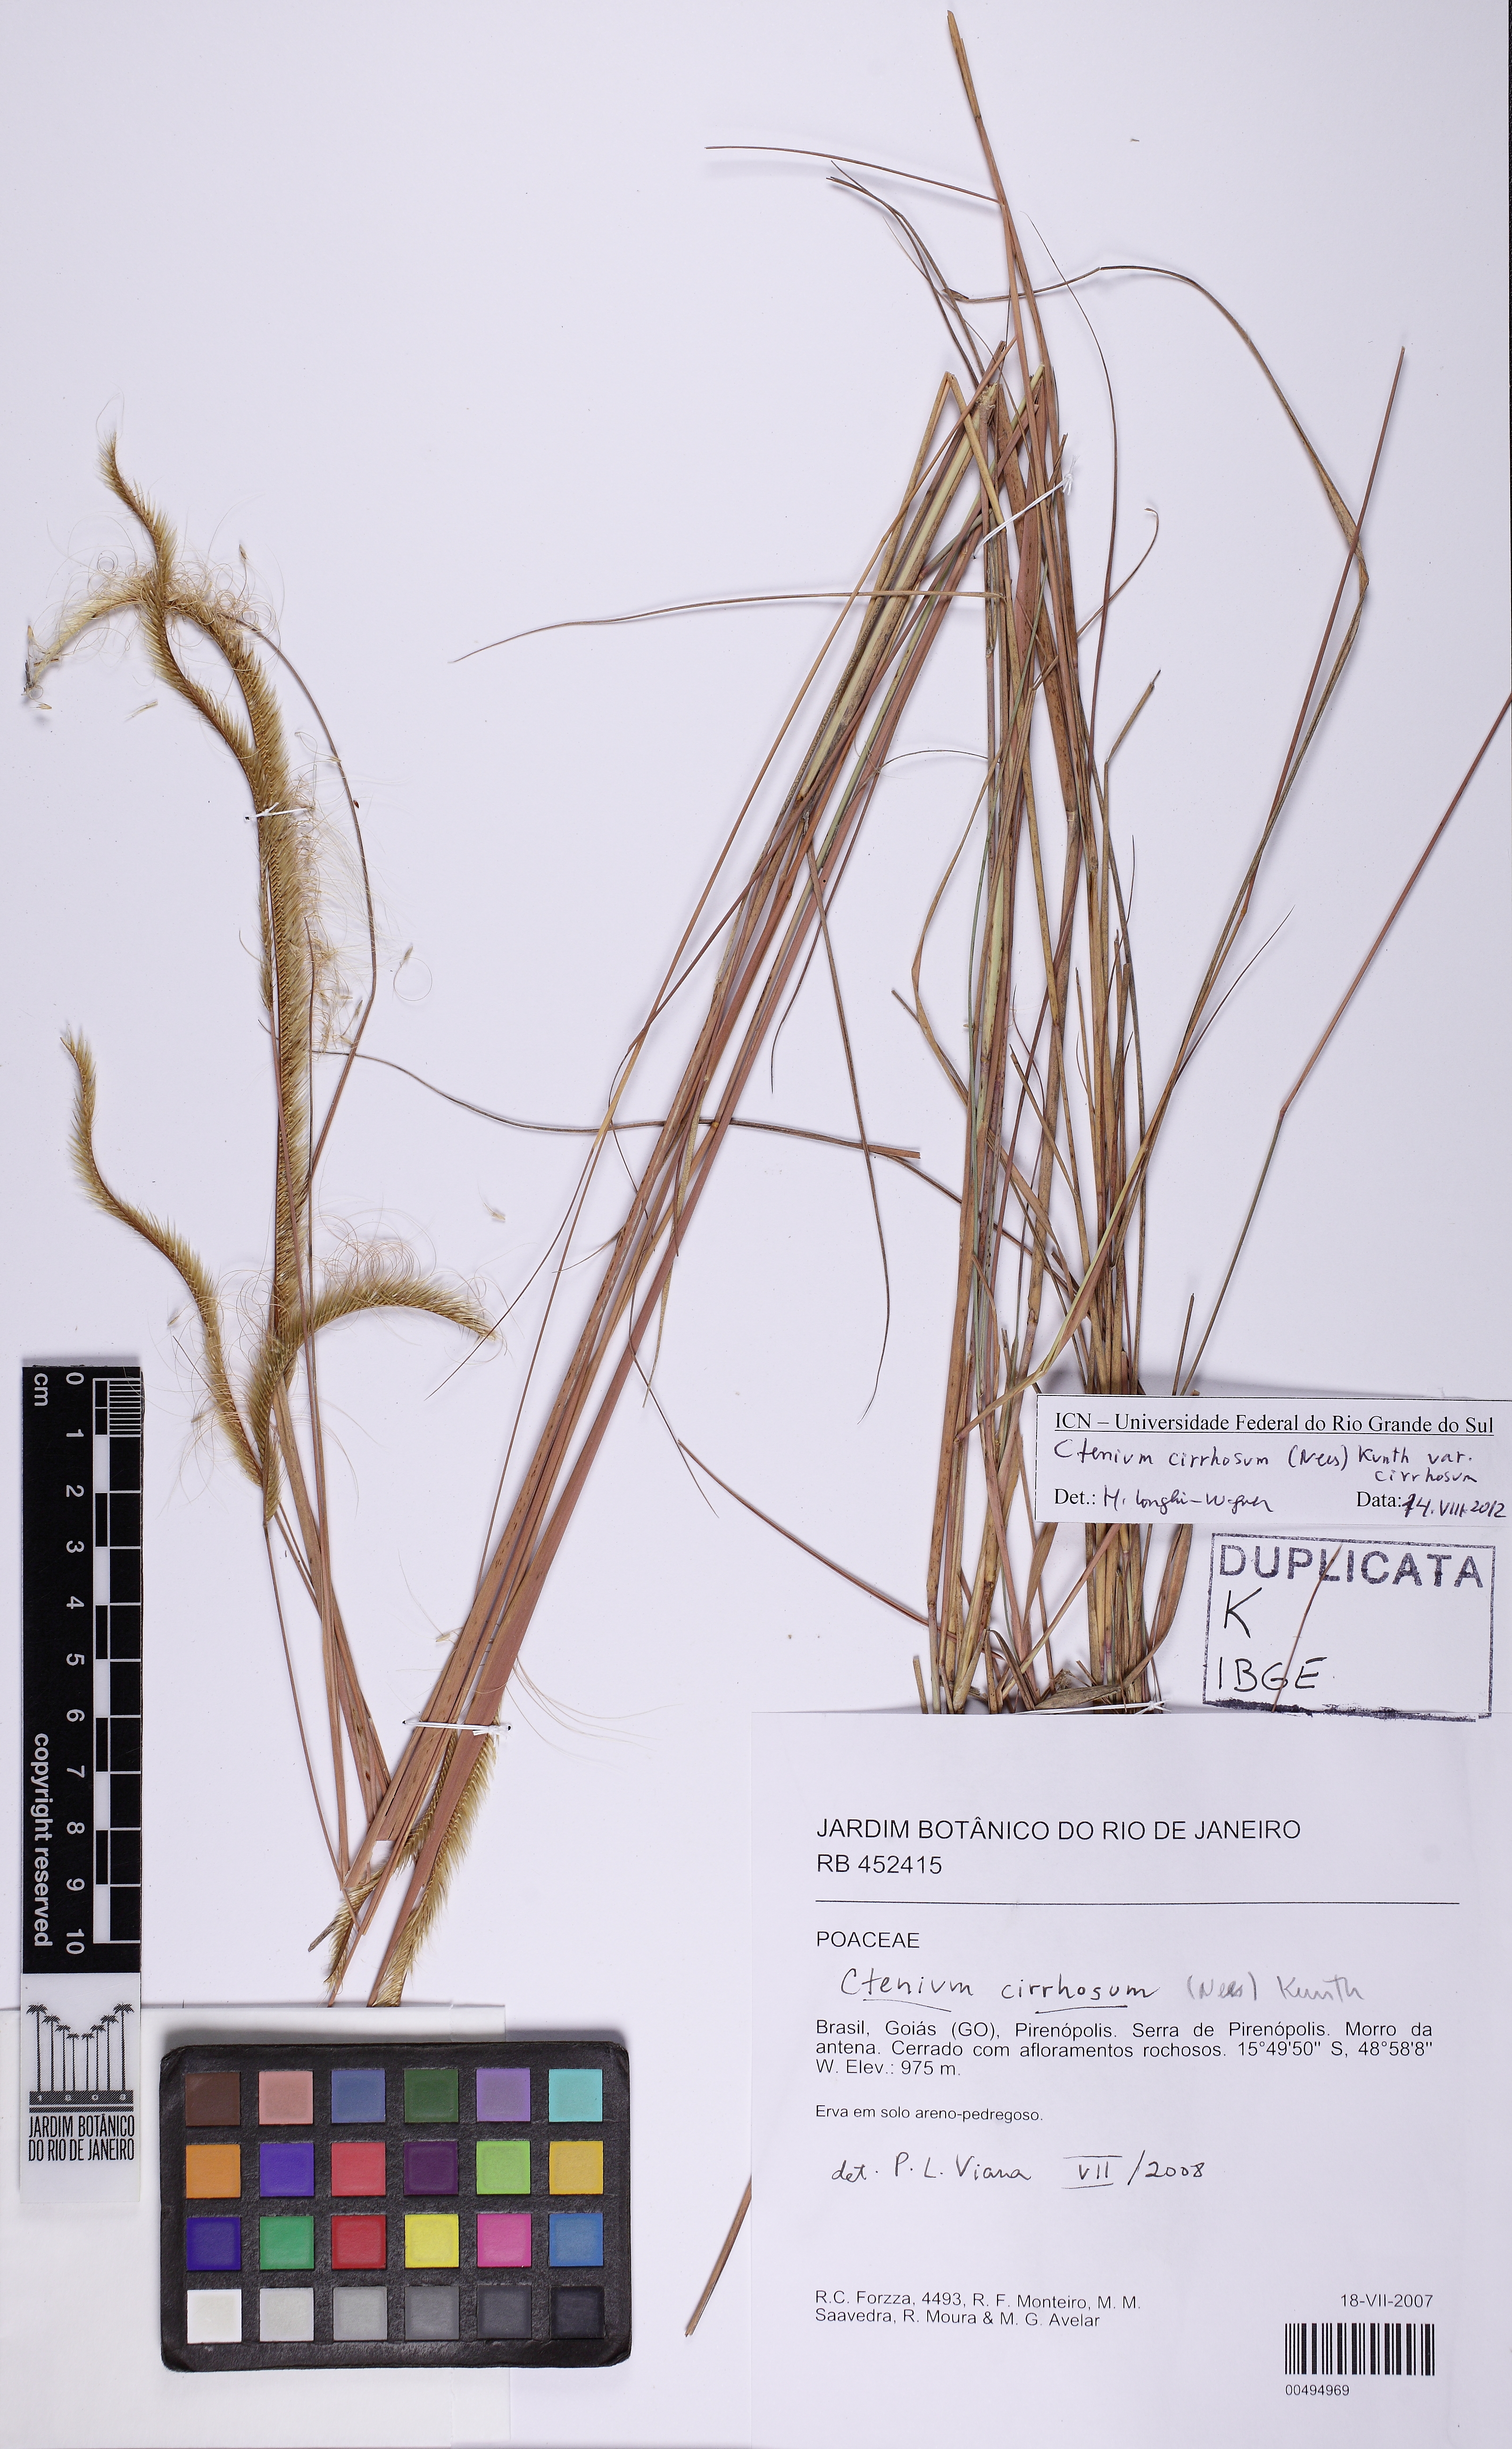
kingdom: Plantae
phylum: Tracheophyta
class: Liliopsida
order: Poales
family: Poaceae
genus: Ctenium
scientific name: Ctenium cirrhosum
